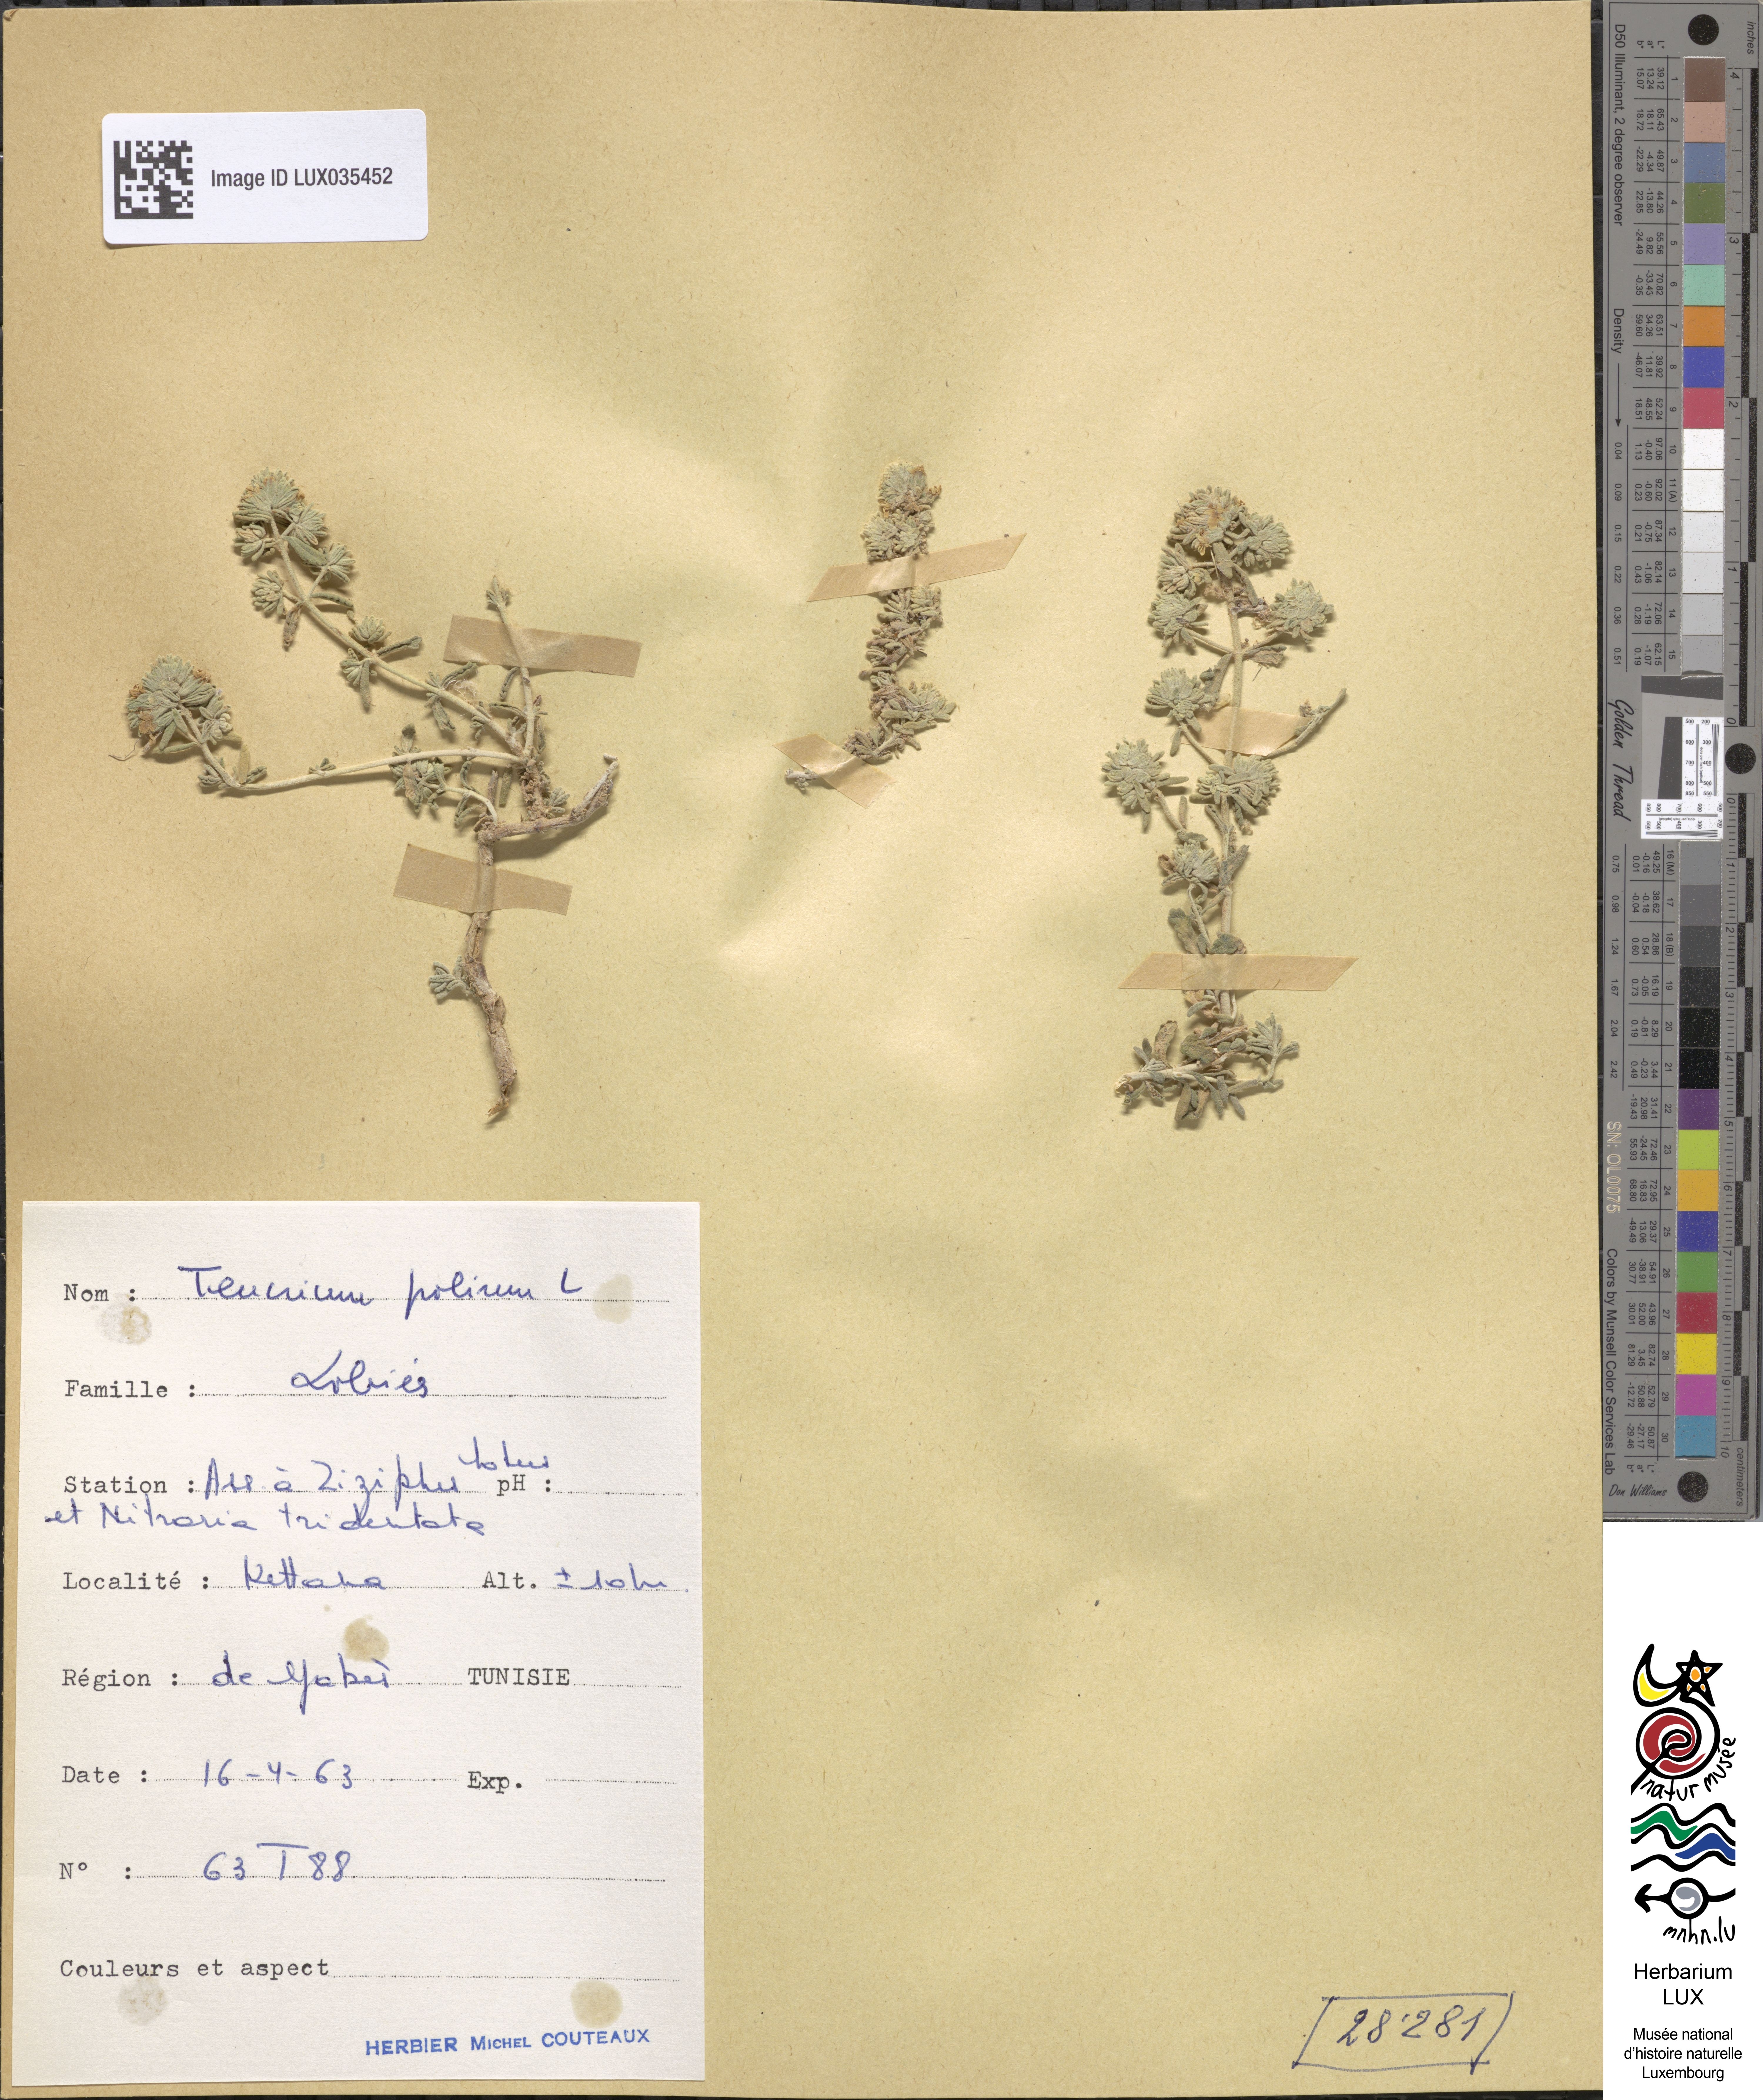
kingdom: Plantae
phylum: Tracheophyta
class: Magnoliopsida
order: Lamiales
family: Lamiaceae
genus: Teucrium
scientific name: Teucrium polium
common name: Poley
